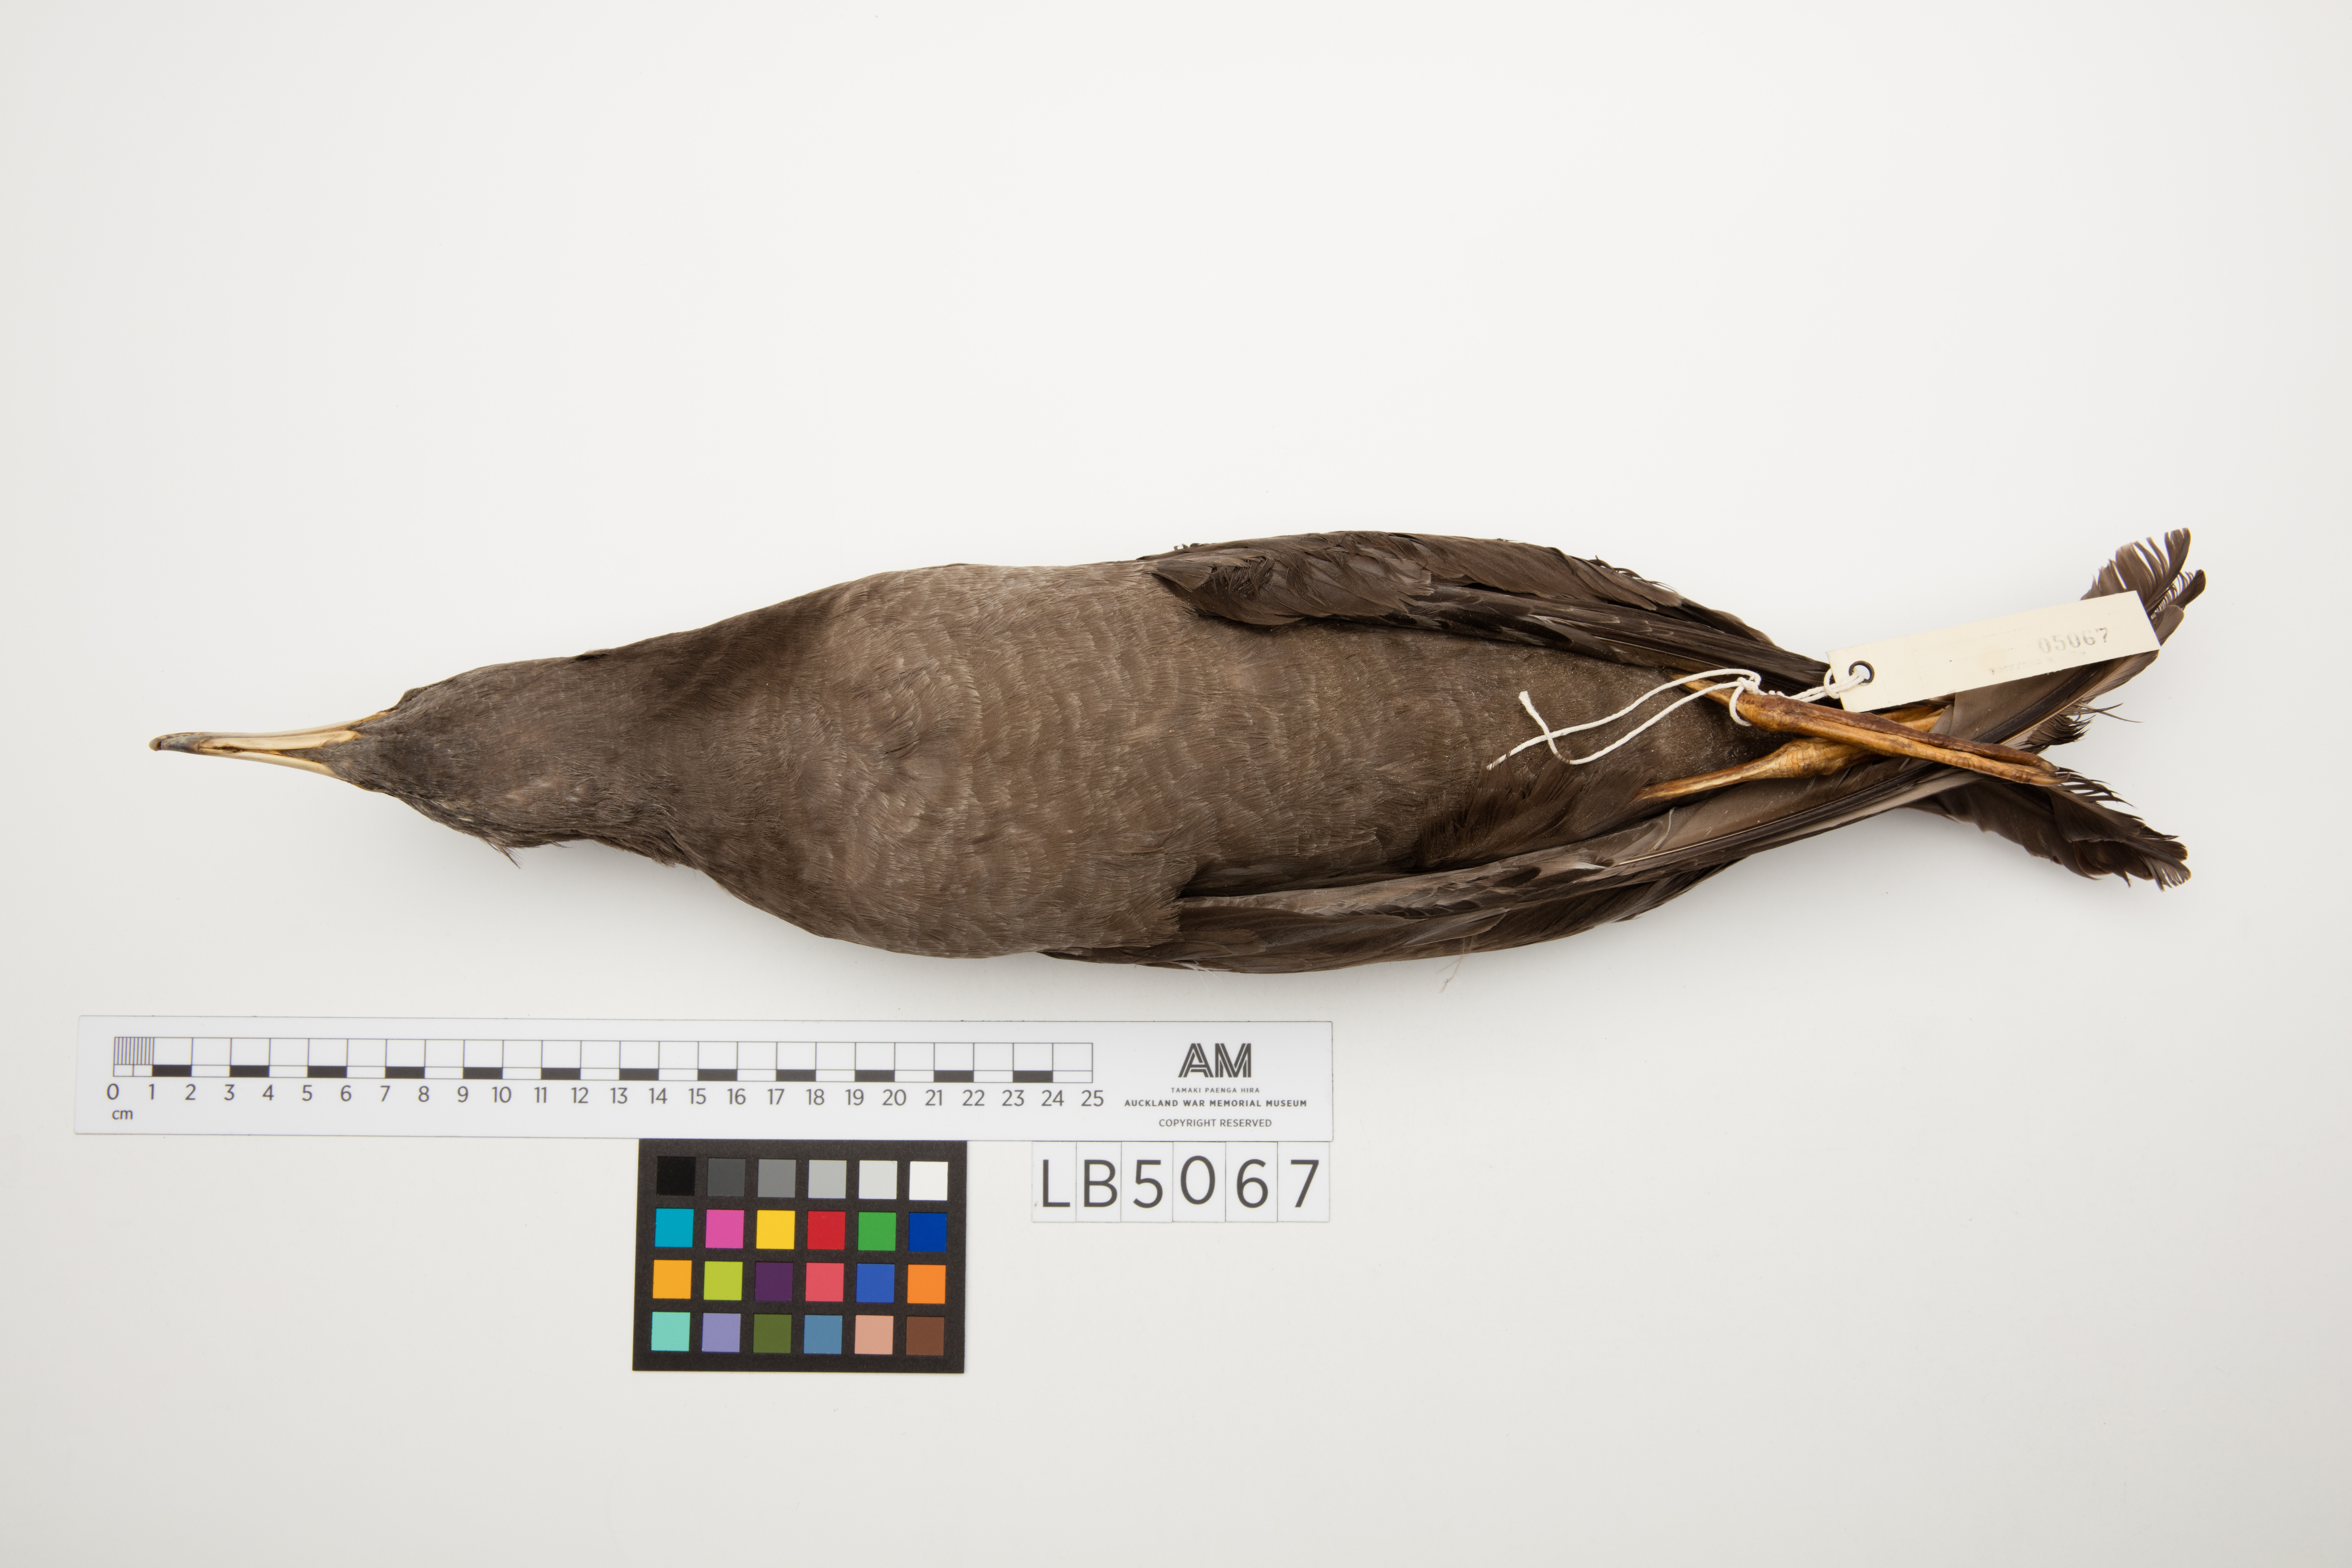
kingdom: Animalia
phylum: Chordata
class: Aves
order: Procellariiformes
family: Procellariidae
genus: Puffinus
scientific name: Puffinus carneipes
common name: Flesh-footed shearwater
